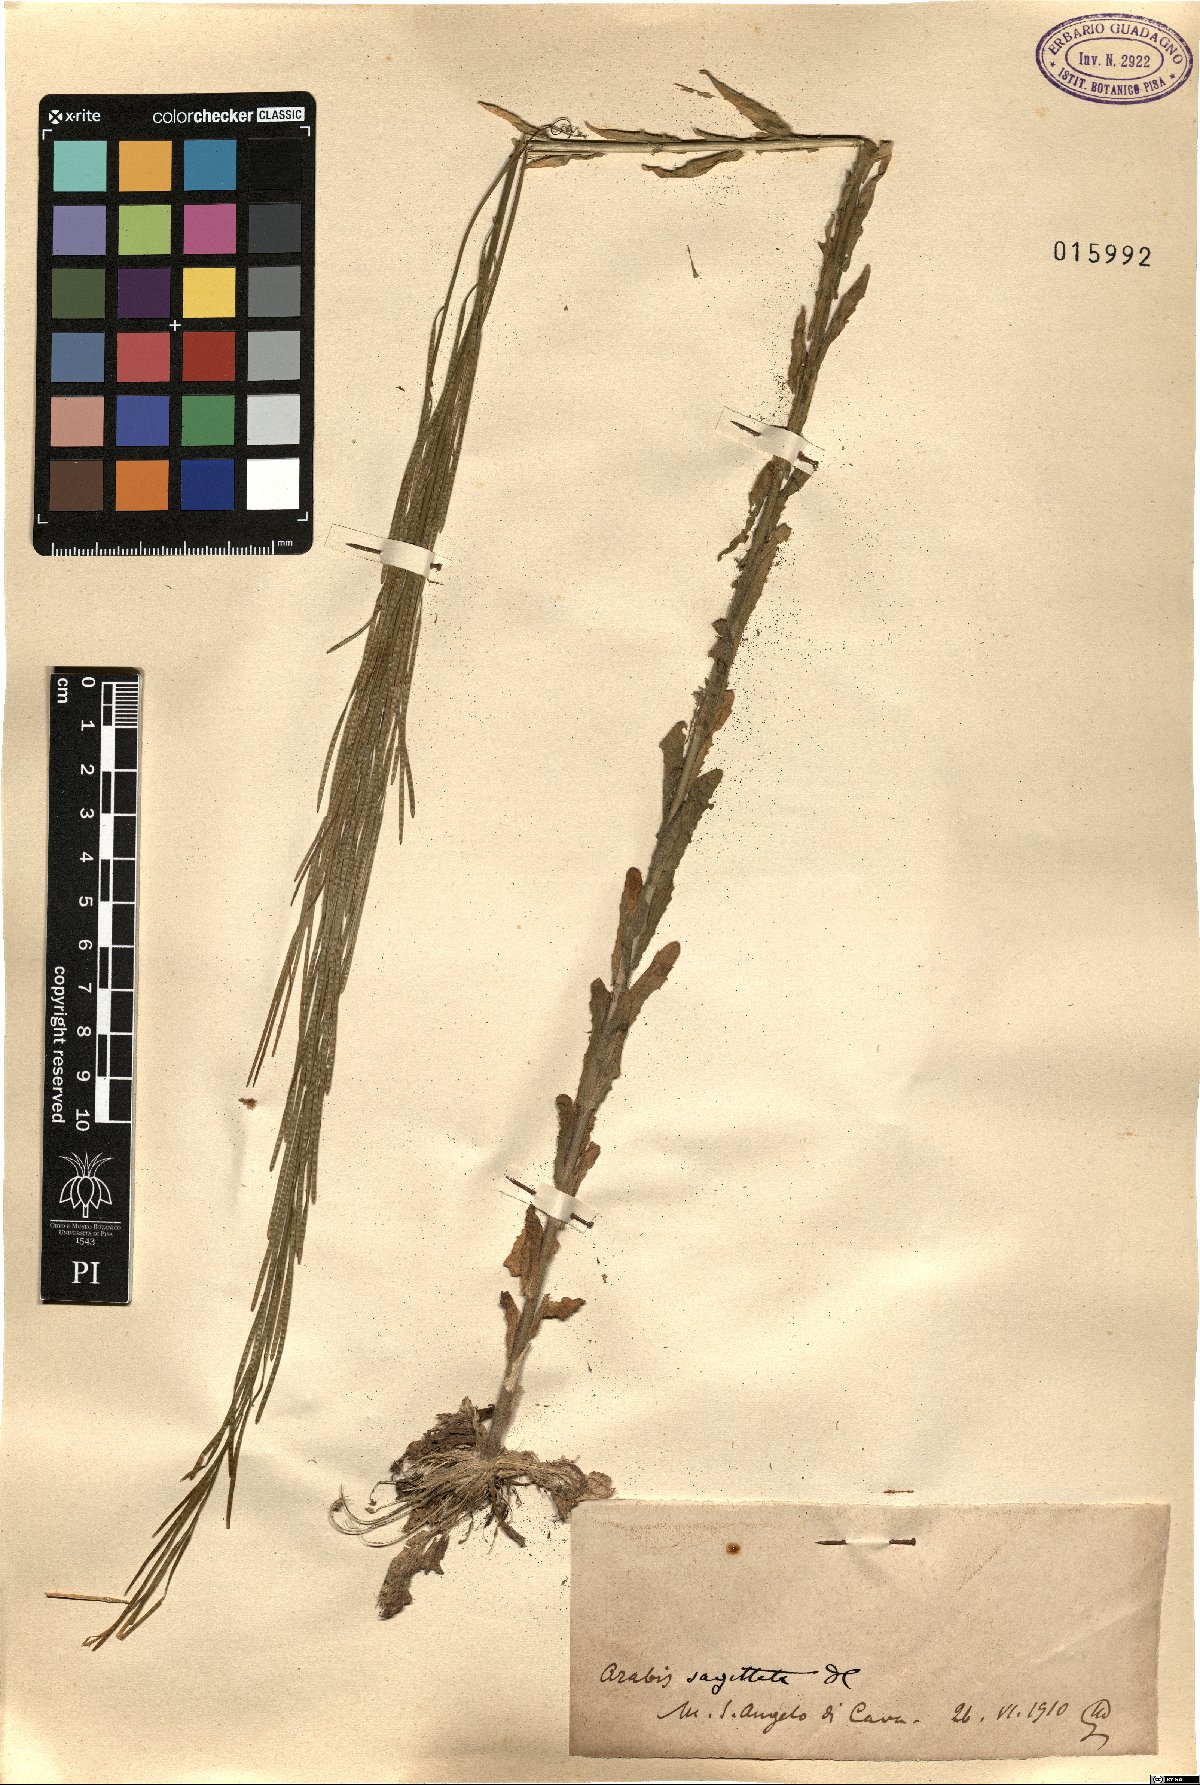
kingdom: Plantae
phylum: Tracheophyta
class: Magnoliopsida
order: Brassicales
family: Brassicaceae
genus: Arabis
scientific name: Arabis sagittata
